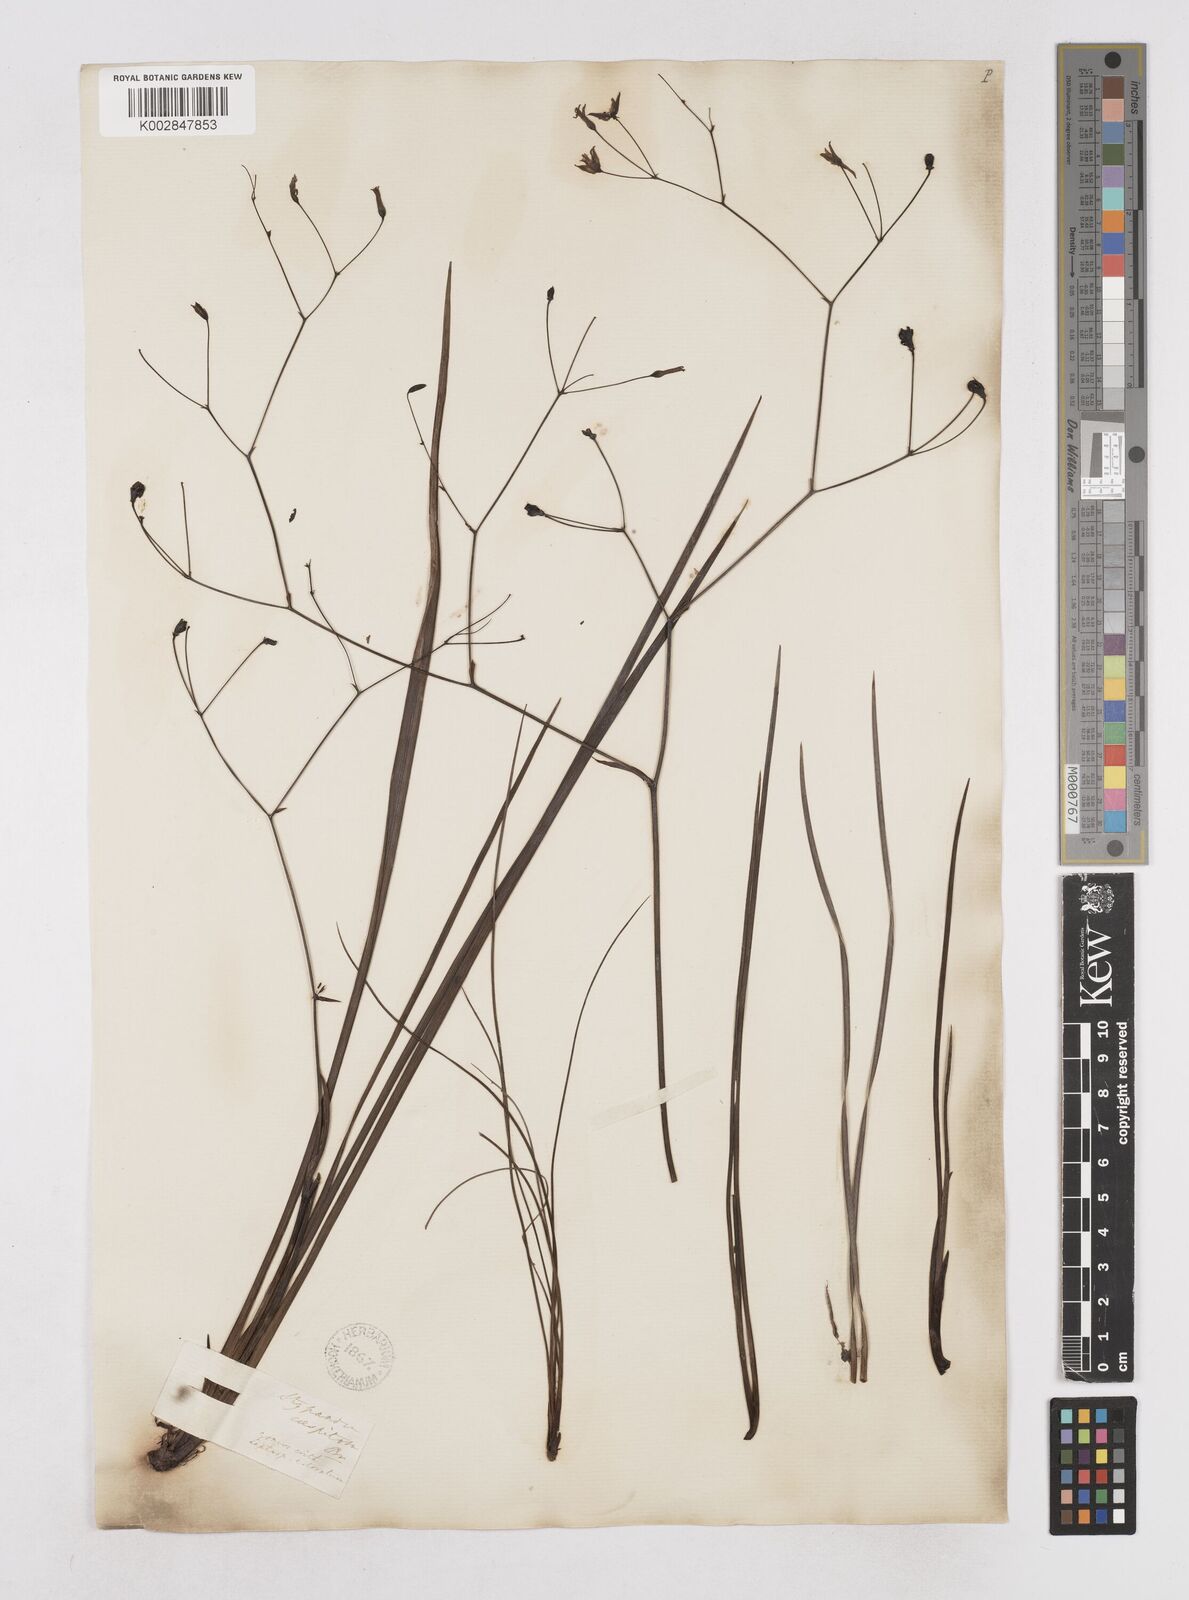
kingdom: Plantae
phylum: Tracheophyta
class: Liliopsida
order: Asparagales
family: Asphodelaceae
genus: Thelionema
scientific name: Thelionema caespitosum
